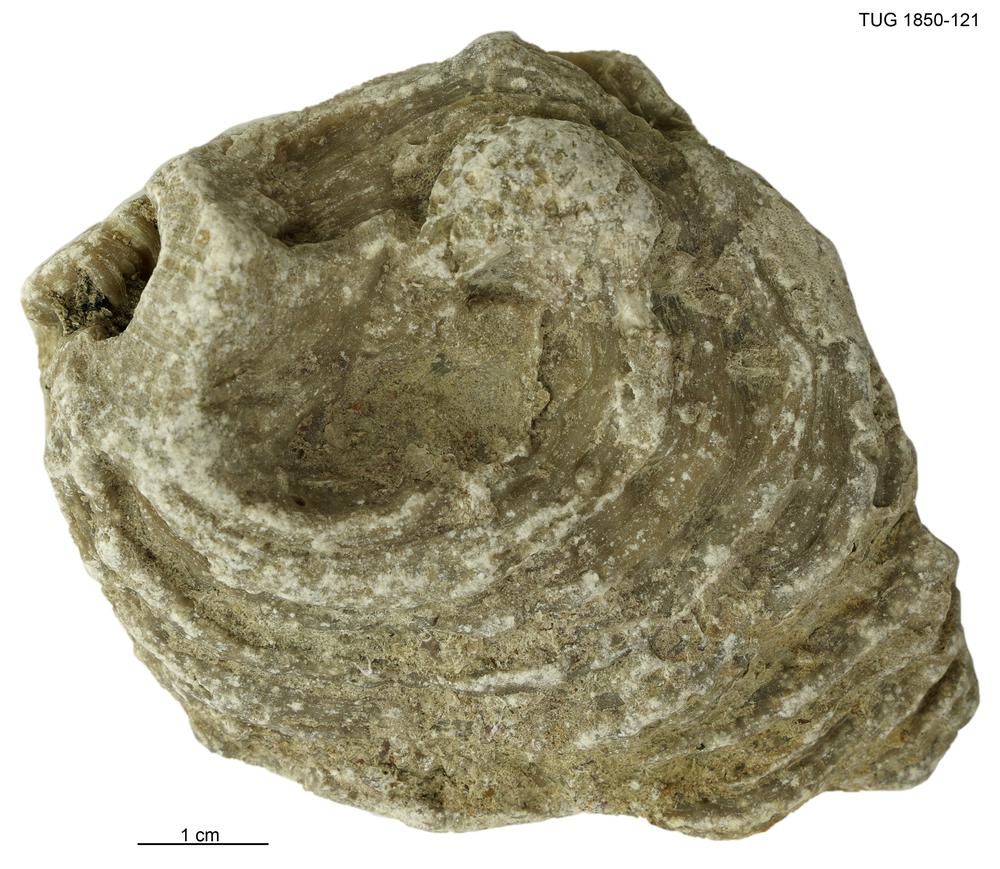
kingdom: Animalia
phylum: Cnidaria
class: Anthozoa
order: Heliolitina
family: Heliolitidae
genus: Heliolites
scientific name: Heliolites
